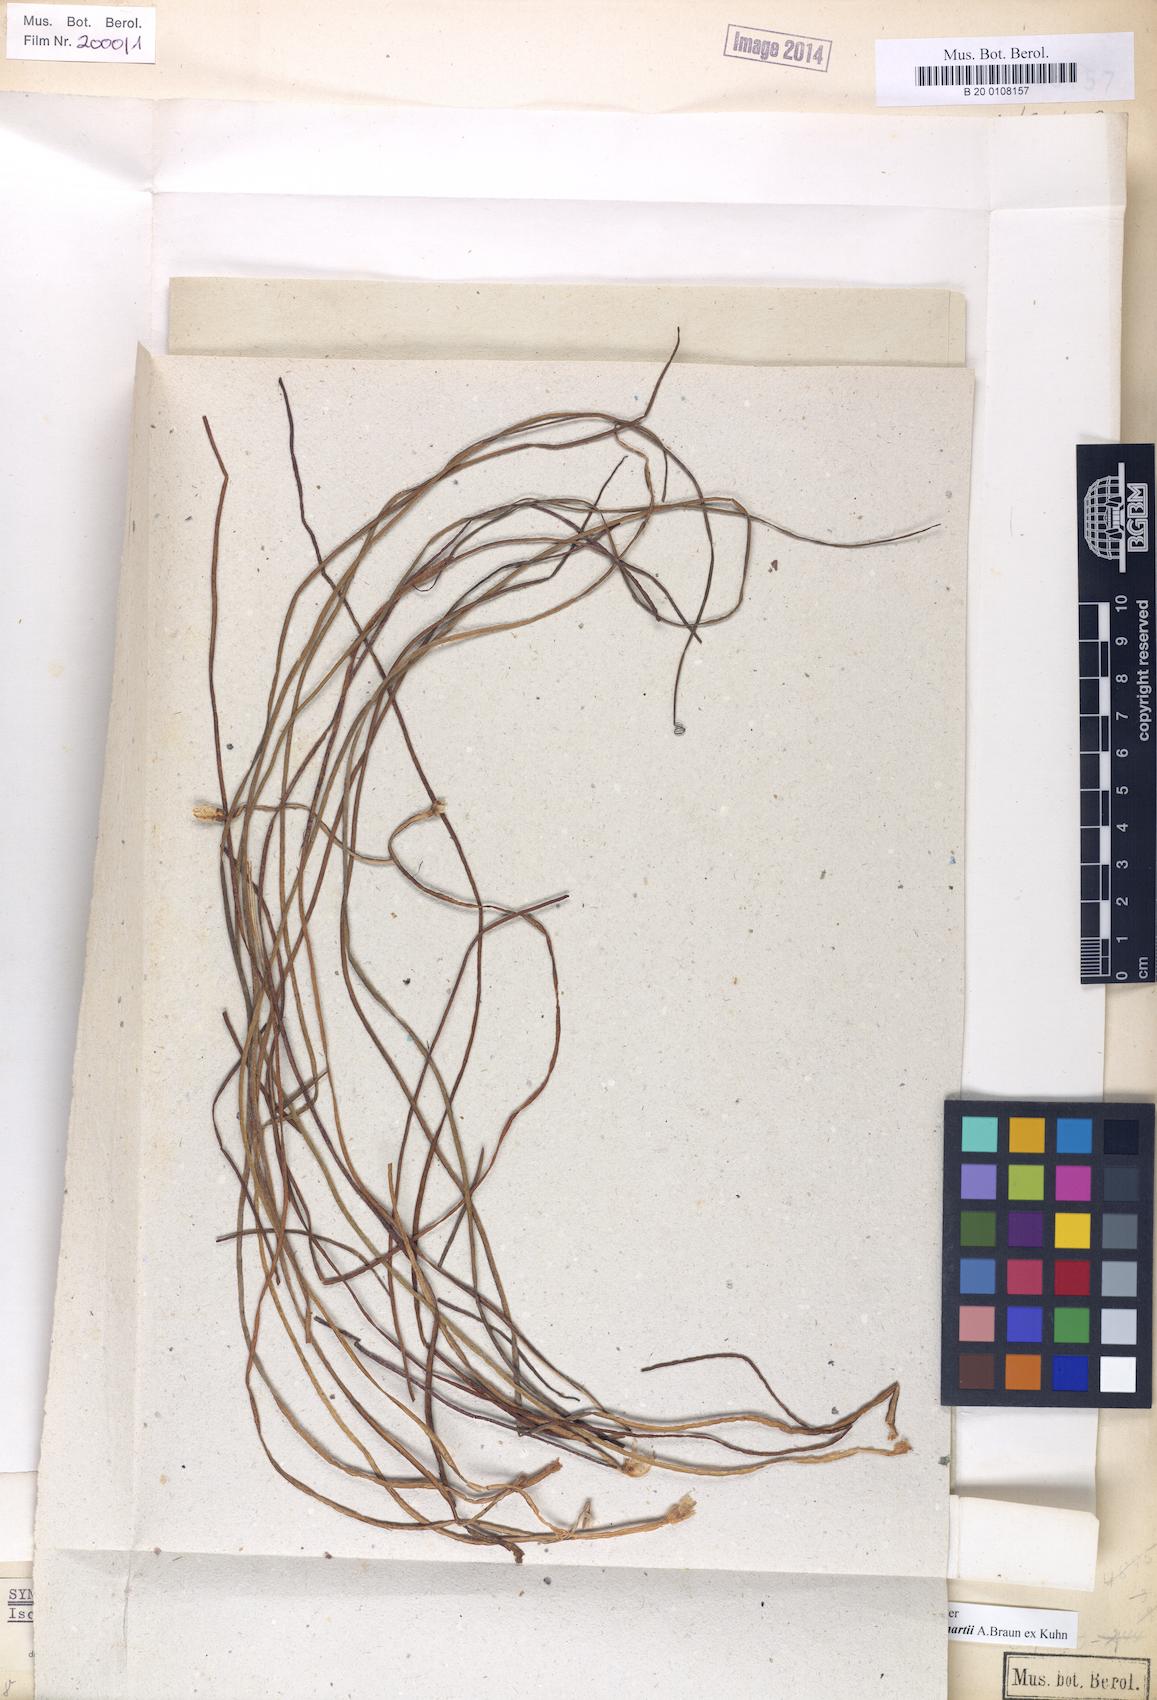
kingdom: Plantae
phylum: Tracheophyta
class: Lycopodiopsida
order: Isoetales
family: Isoetaceae
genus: Isoetes
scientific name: Isoetes martii
